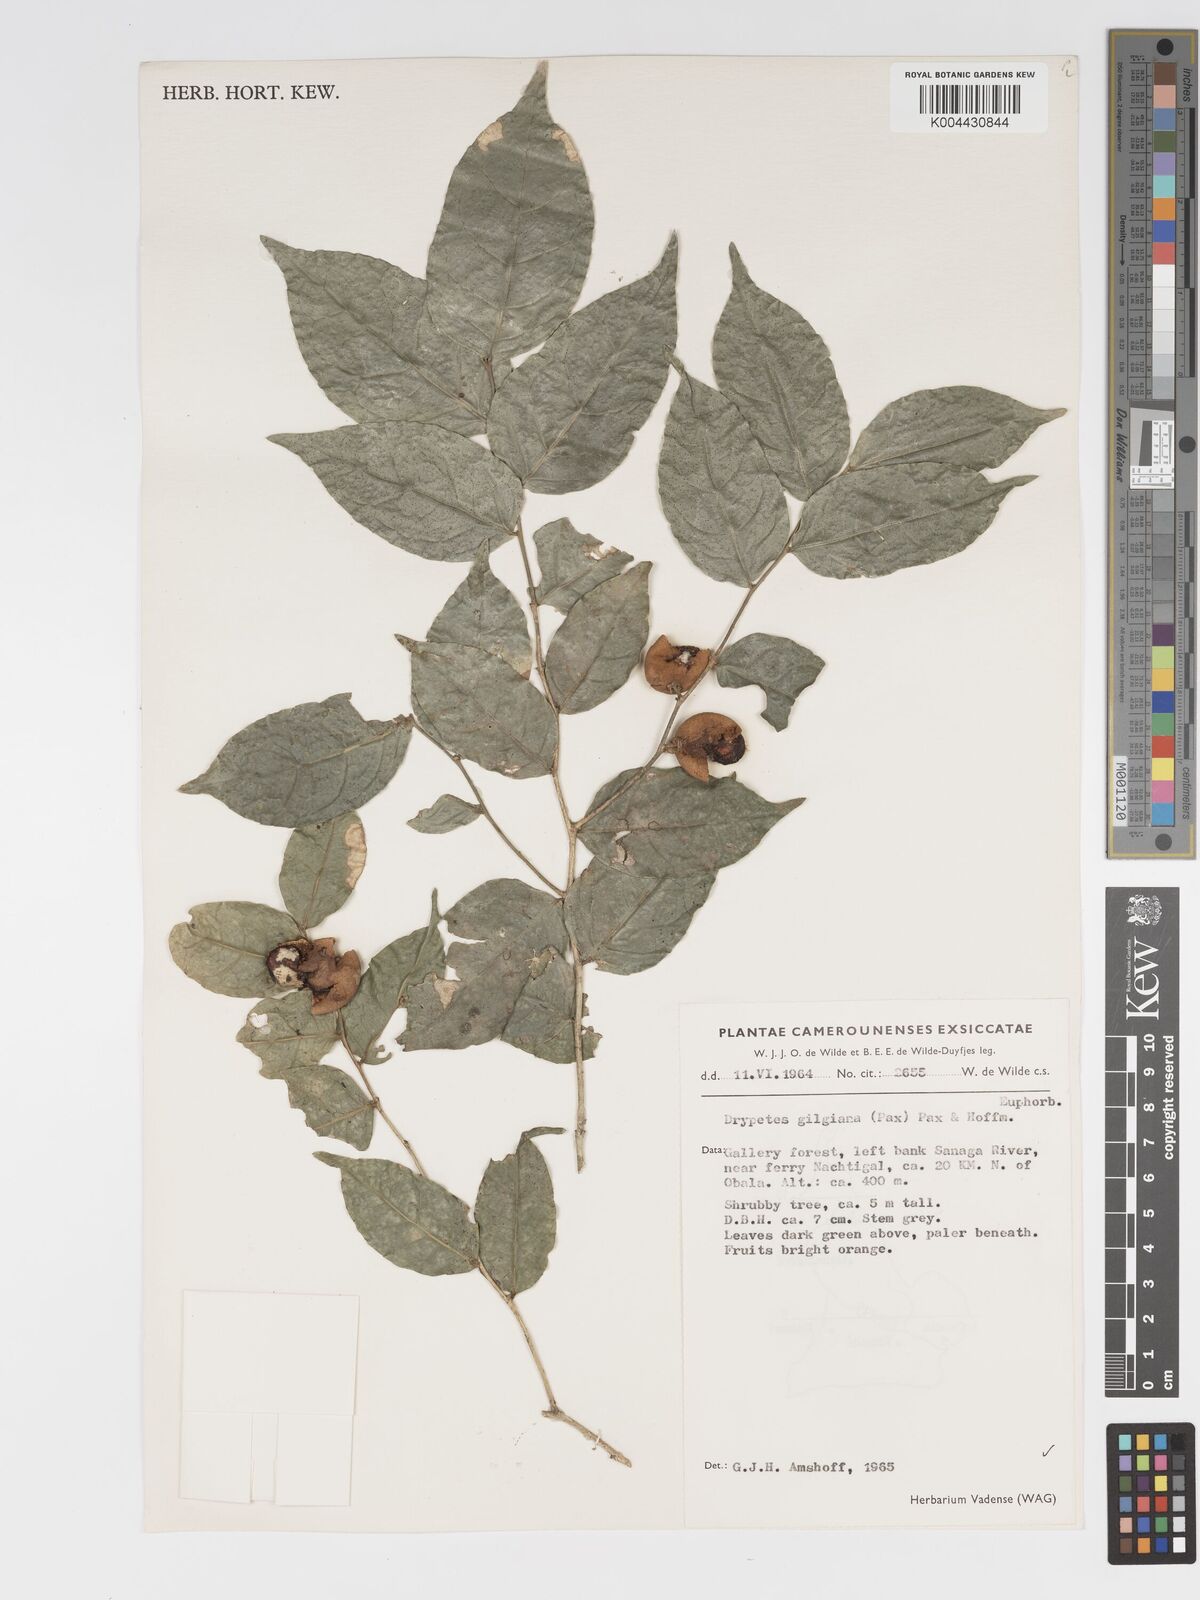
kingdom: Plantae
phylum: Tracheophyta
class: Magnoliopsida
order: Malpighiales
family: Putranjivaceae
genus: Drypetes
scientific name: Drypetes gilgiana
